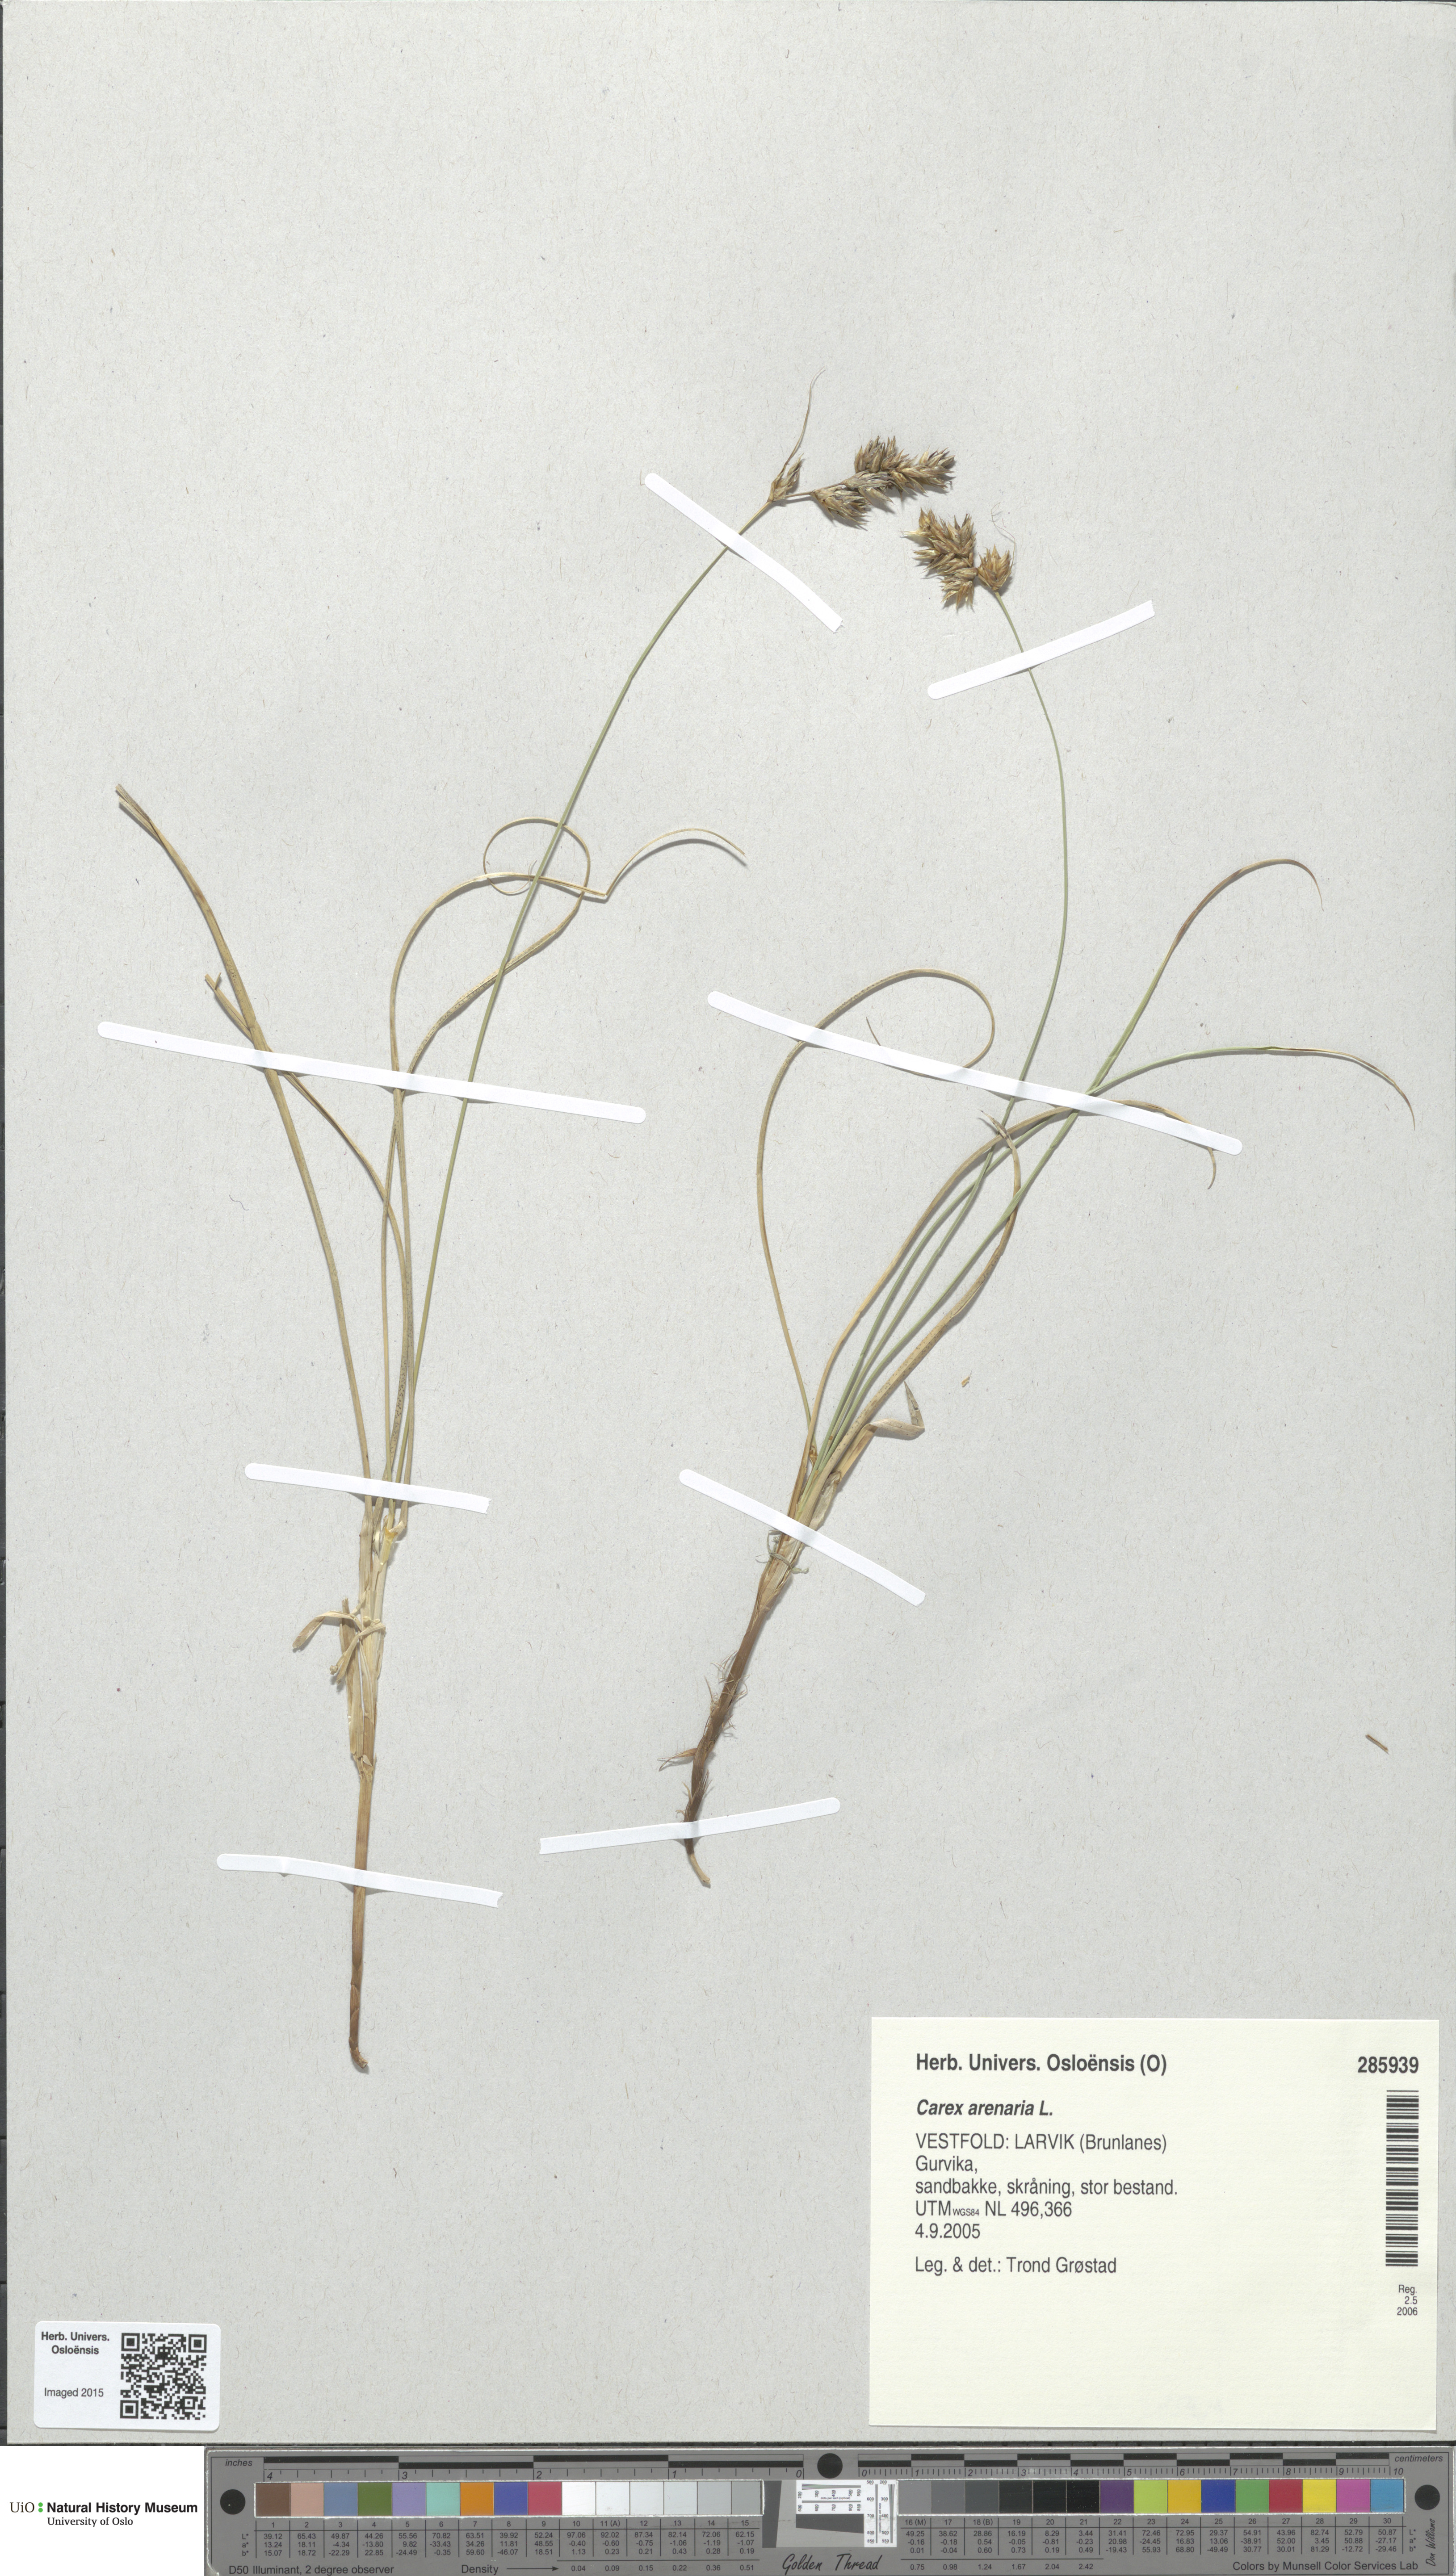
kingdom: Plantae
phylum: Tracheophyta
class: Liliopsida
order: Poales
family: Cyperaceae
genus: Carex
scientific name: Carex arenaria
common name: Sand sedge
